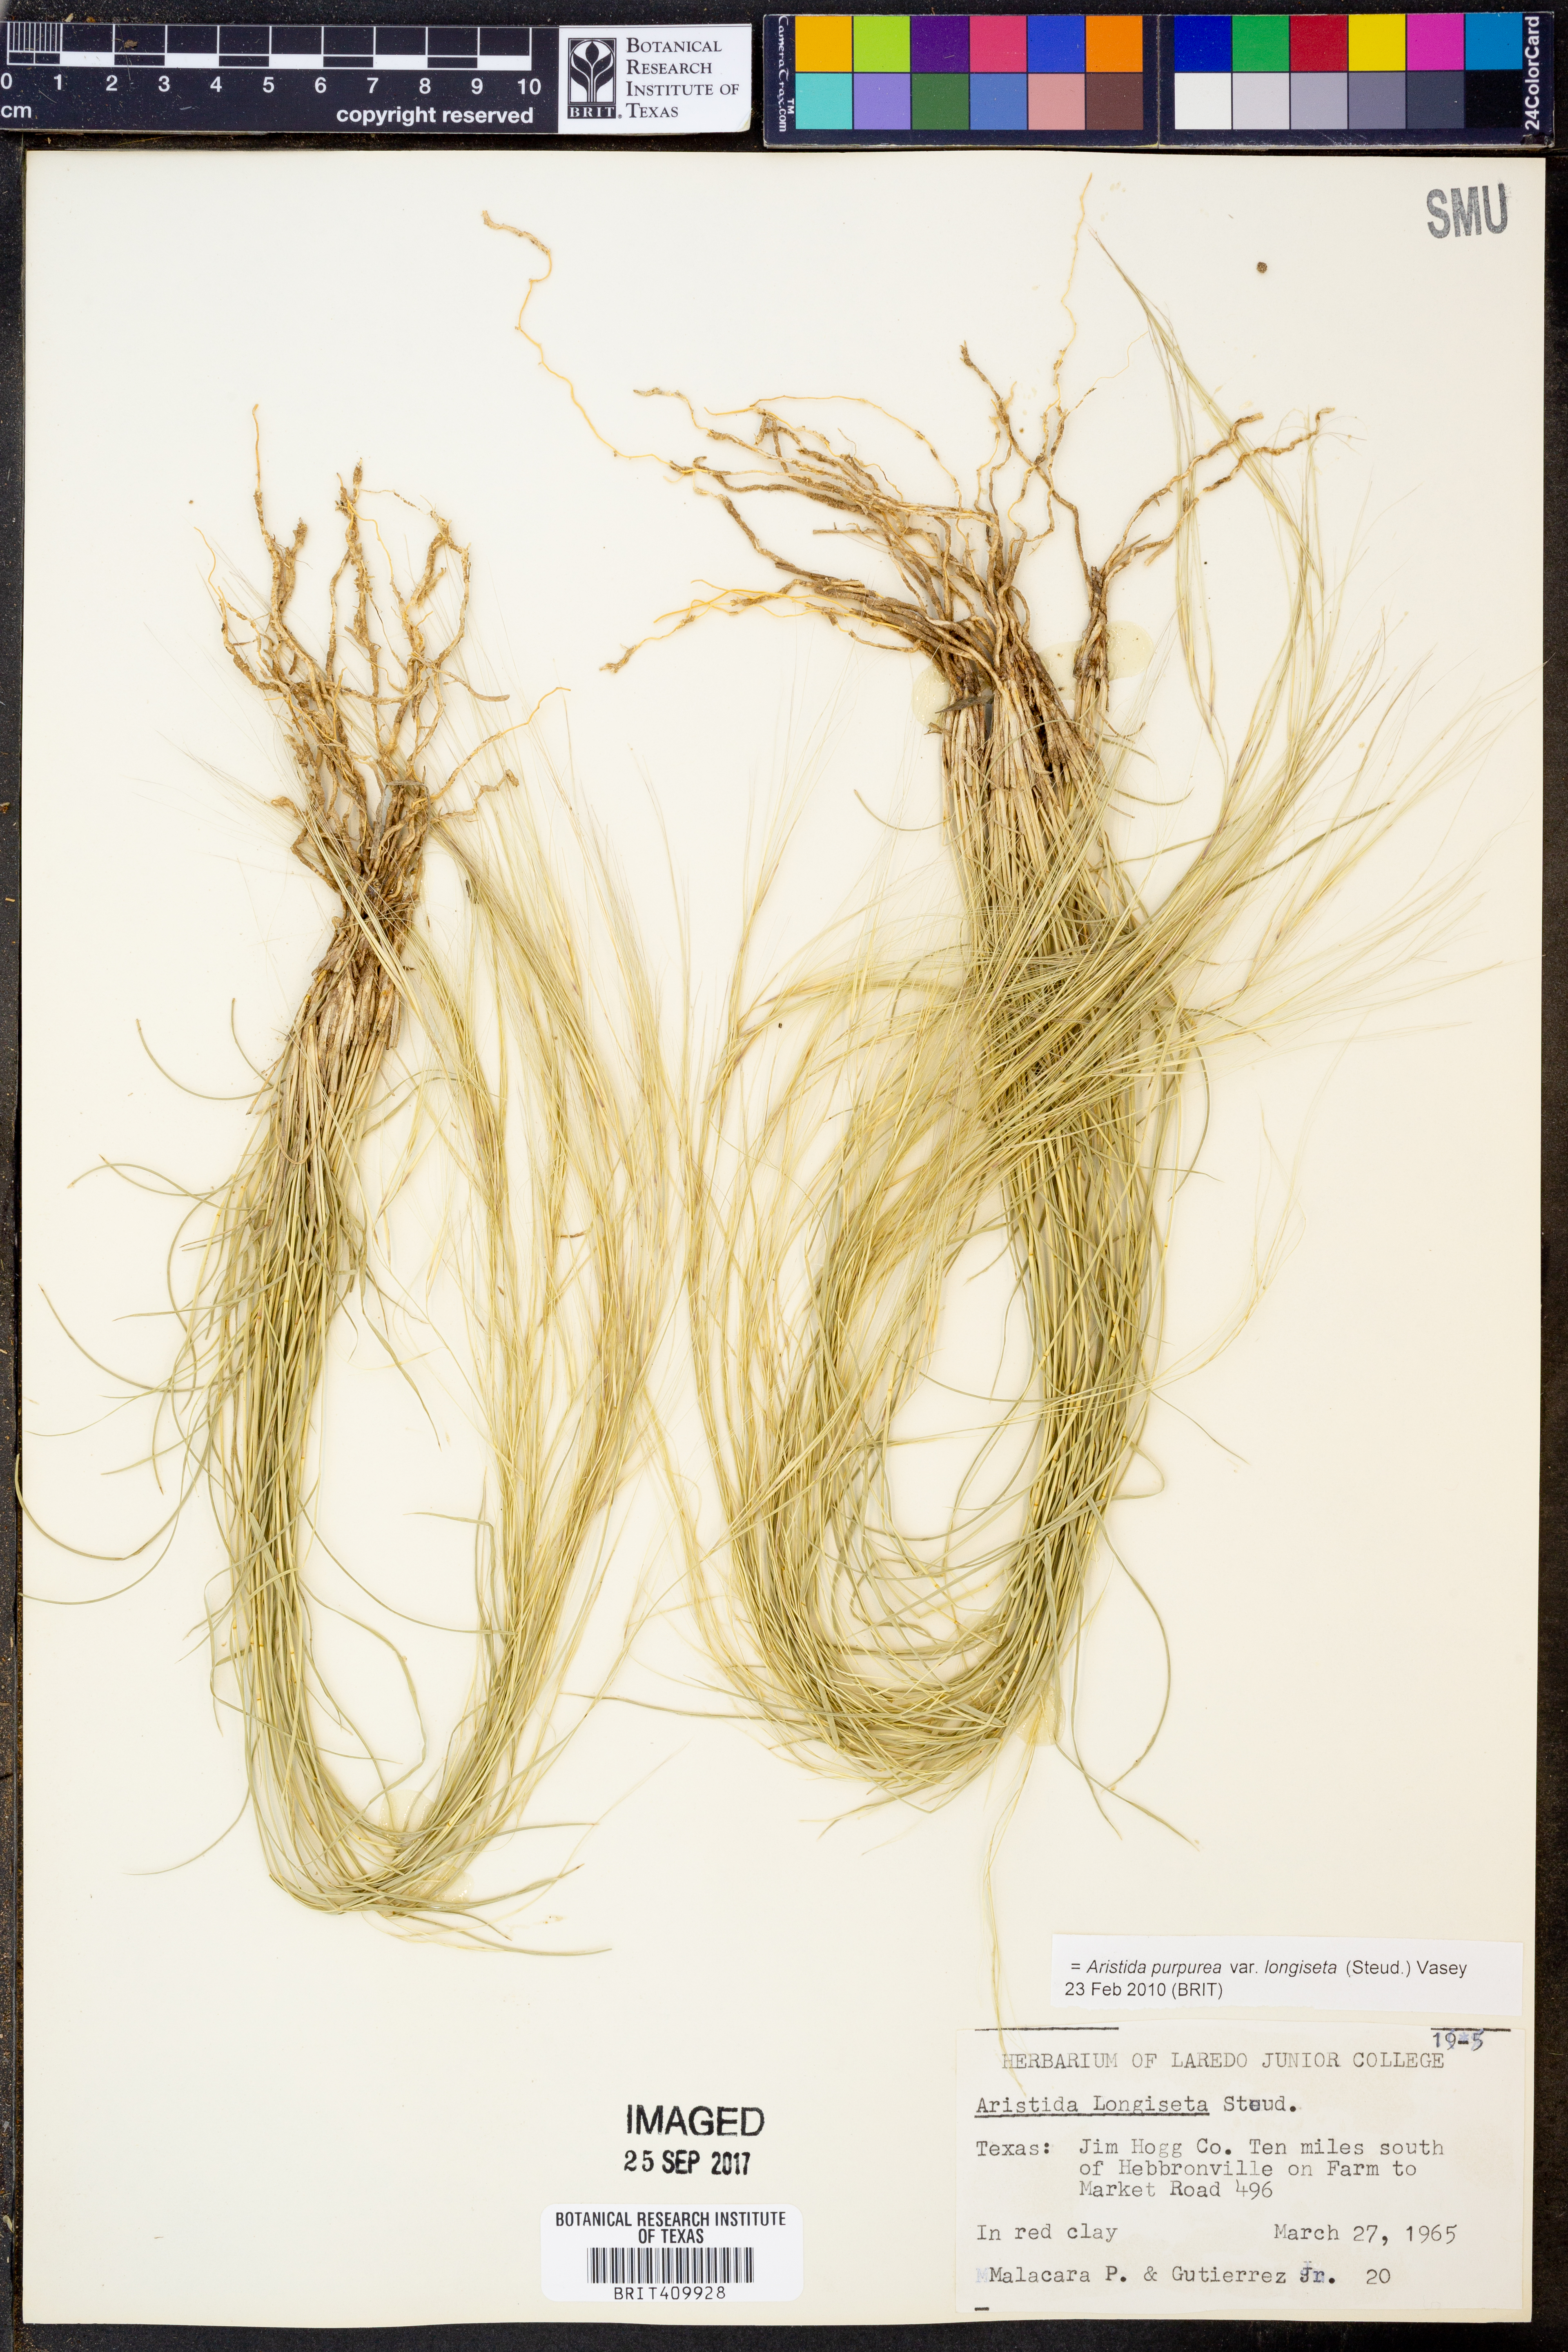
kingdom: Plantae
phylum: Tracheophyta
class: Liliopsida
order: Poales
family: Poaceae
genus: Aristida
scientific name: Aristida longiseta
